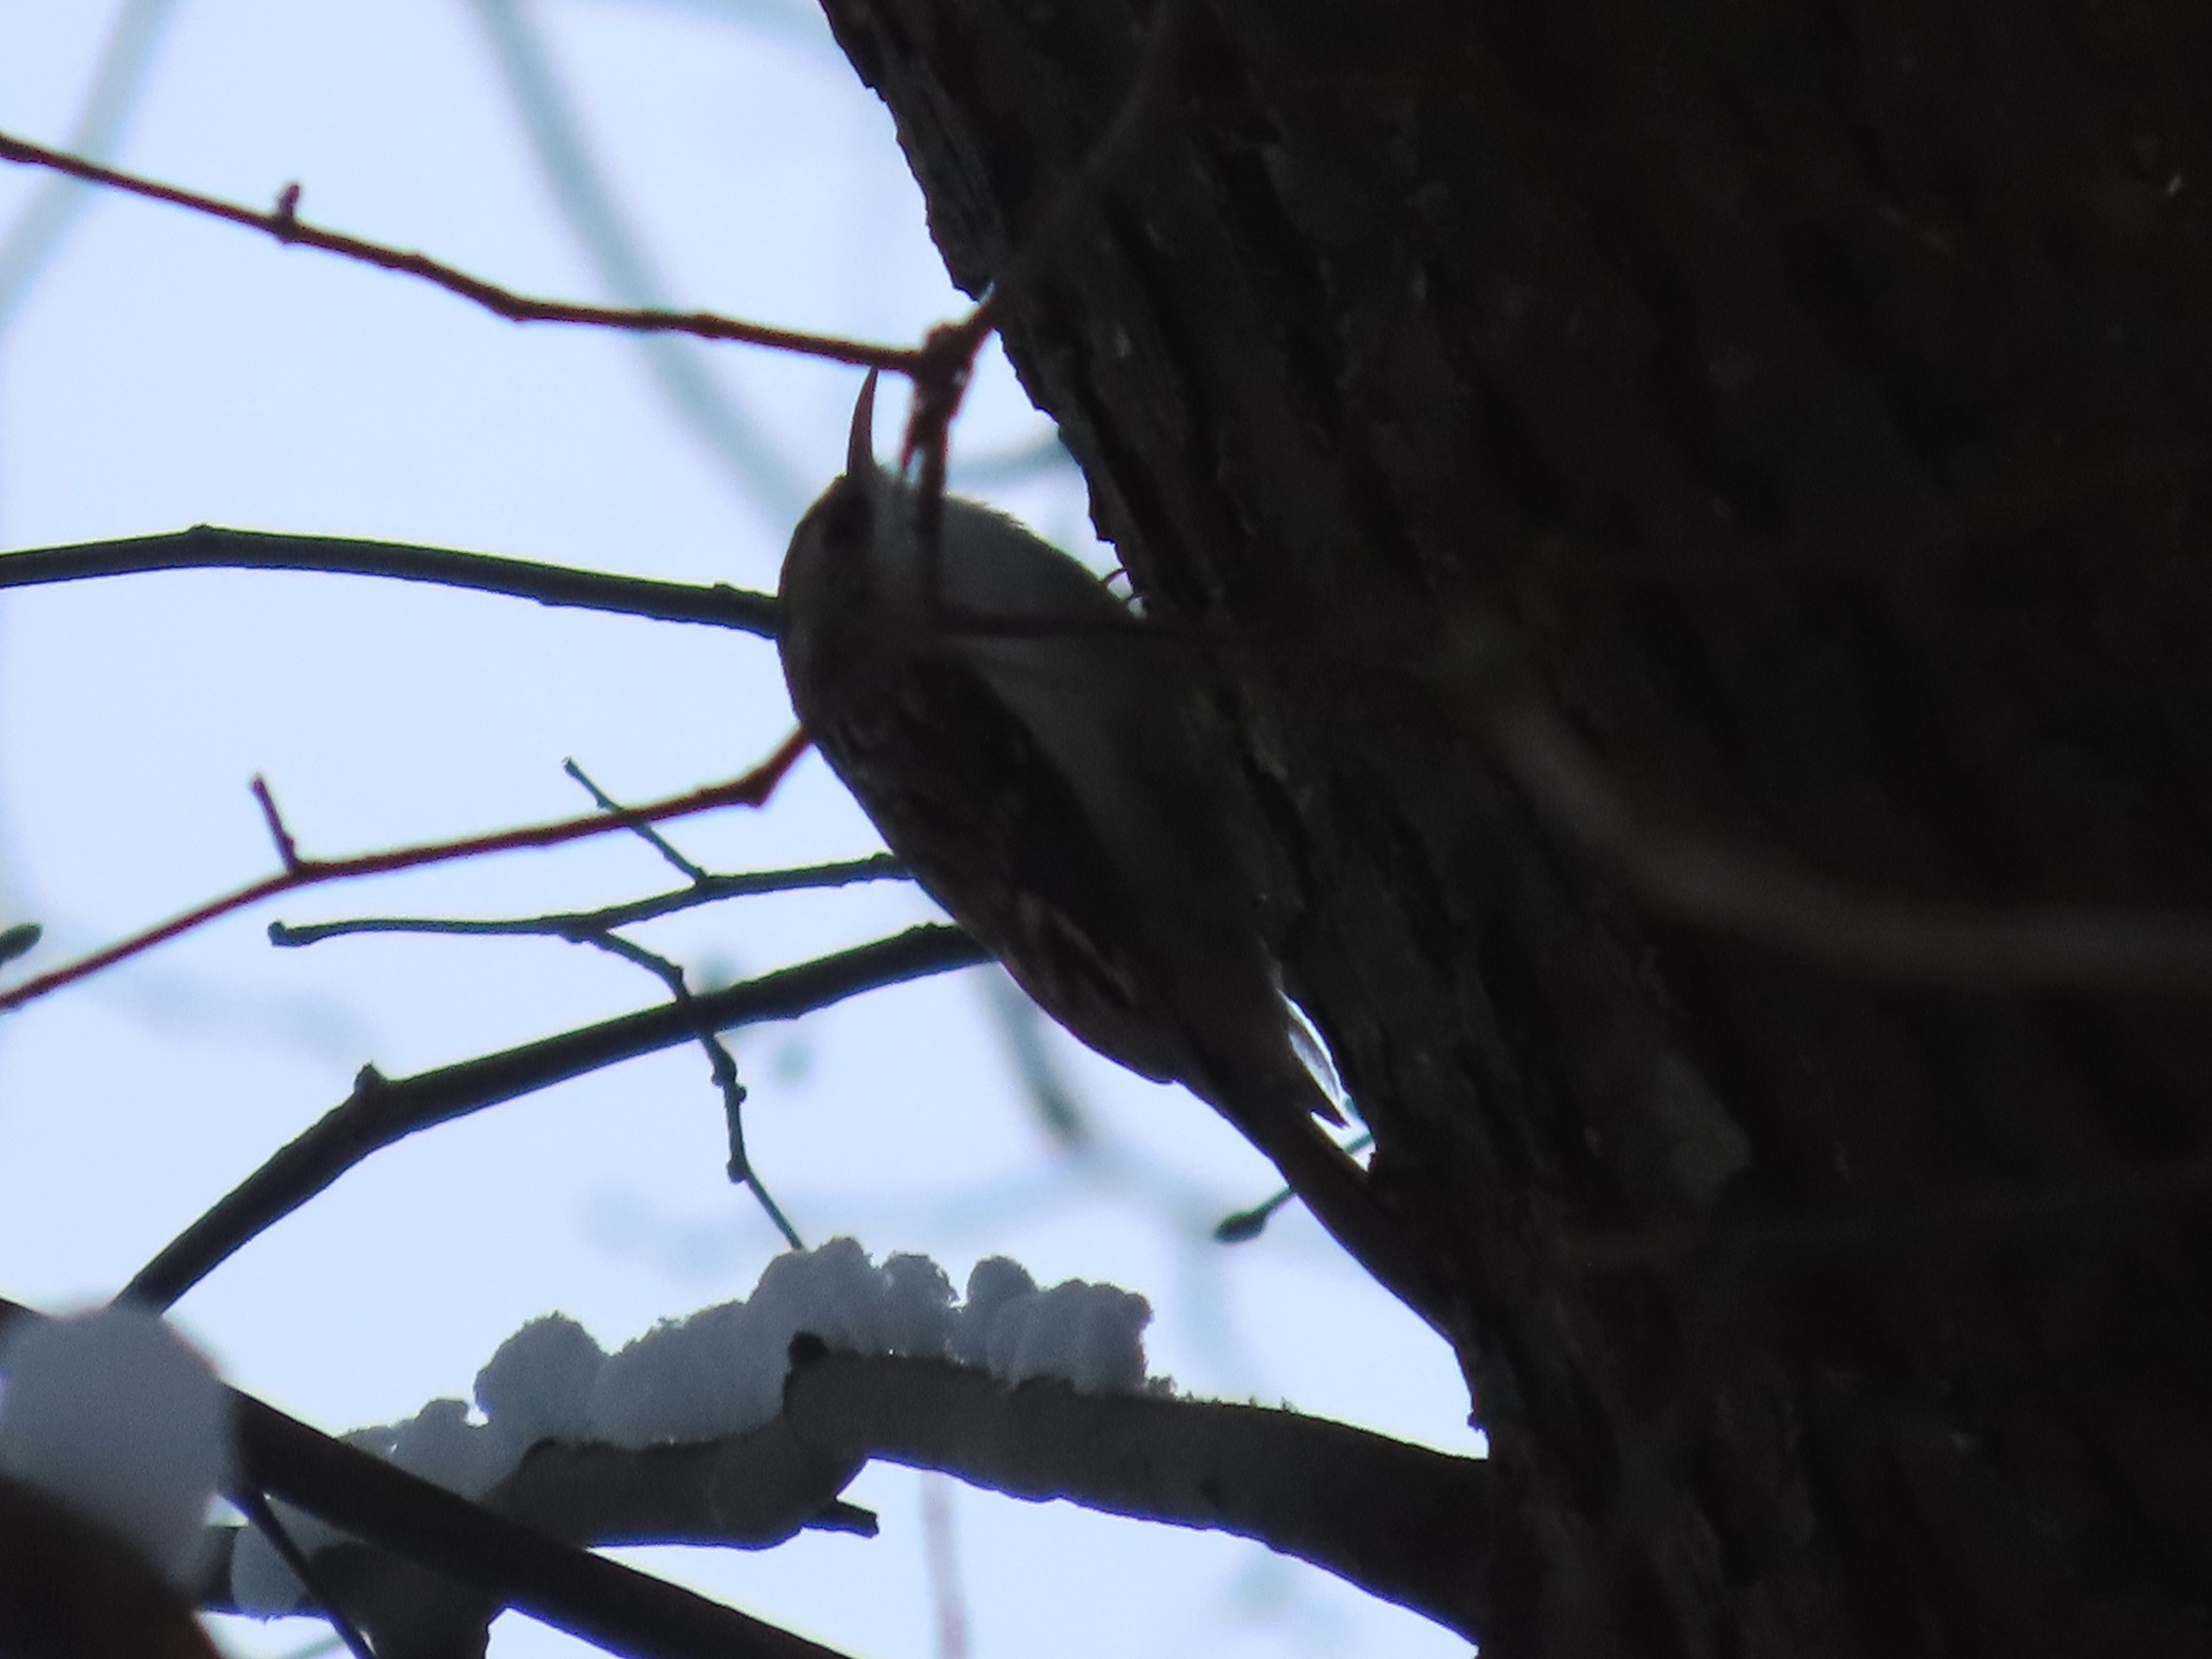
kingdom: Animalia
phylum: Chordata
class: Aves
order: Passeriformes
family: Certhiidae
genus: Certhia
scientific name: Certhia familiaris
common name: Træløber
